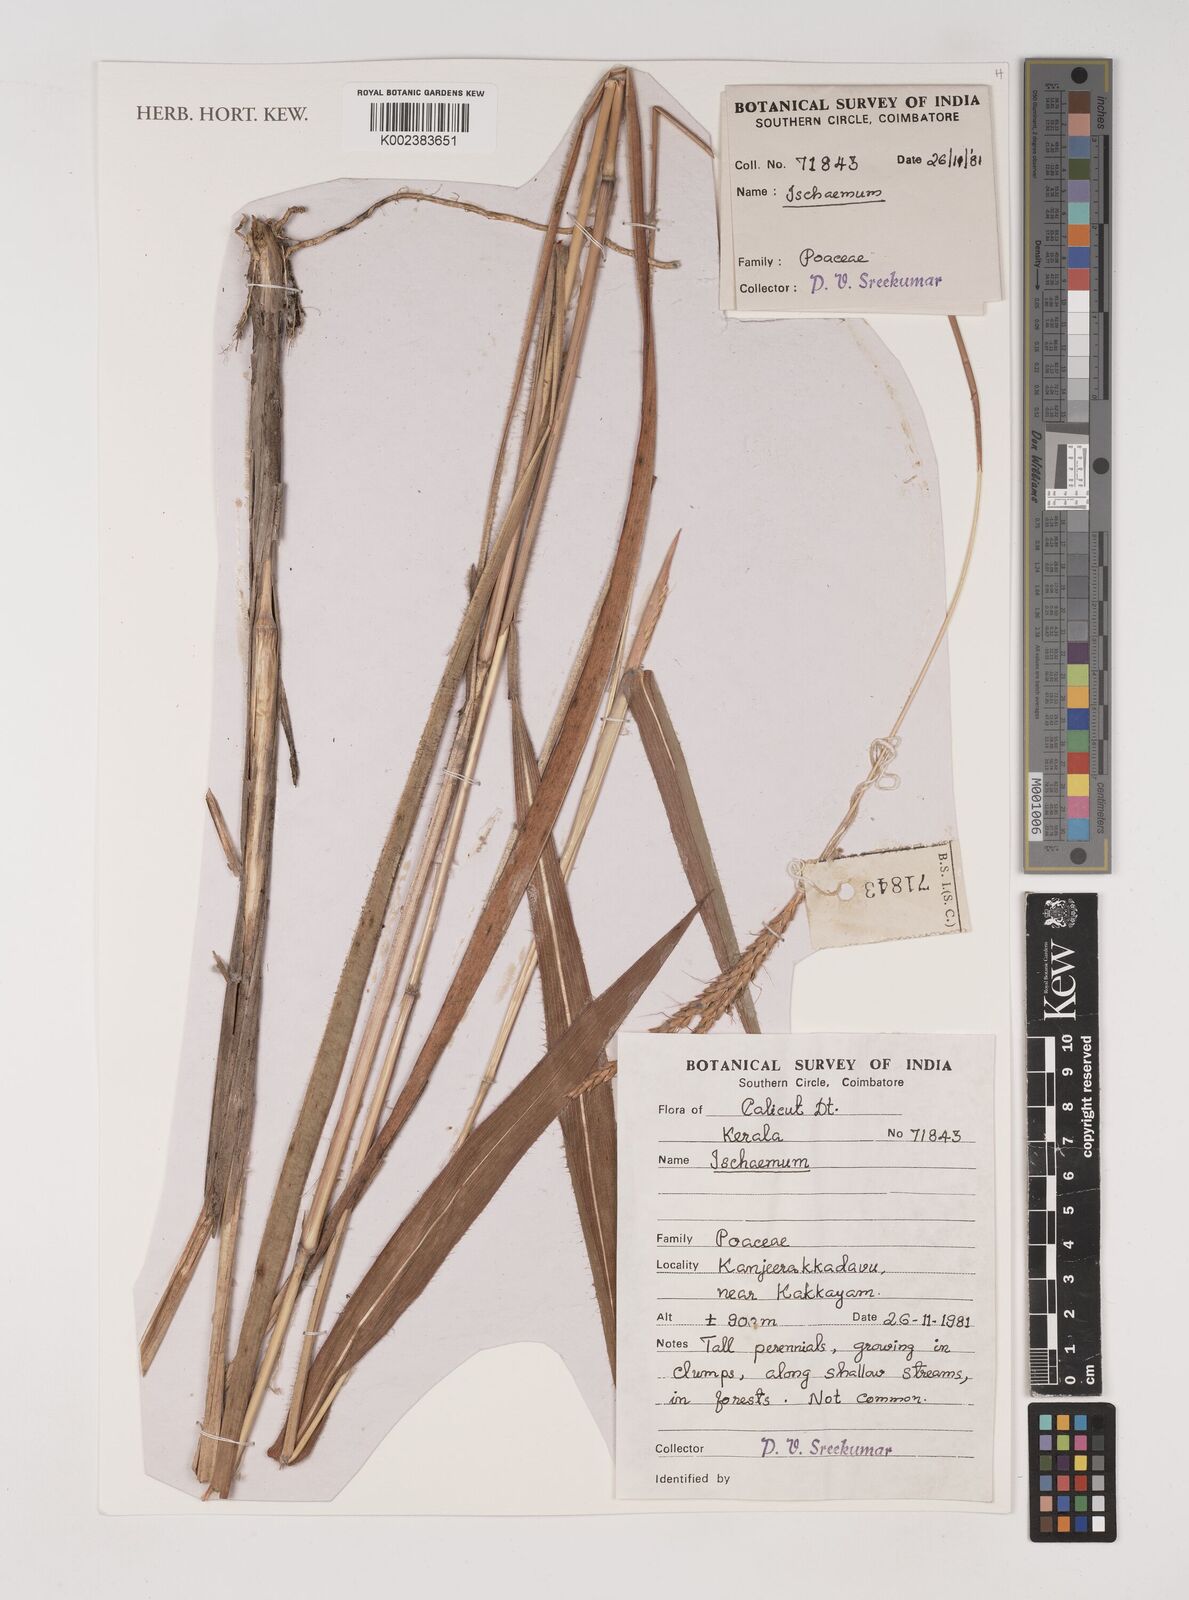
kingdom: Plantae
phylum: Tracheophyta
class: Liliopsida
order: Poales
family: Poaceae
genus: Ischaemum
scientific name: Ischaemum
